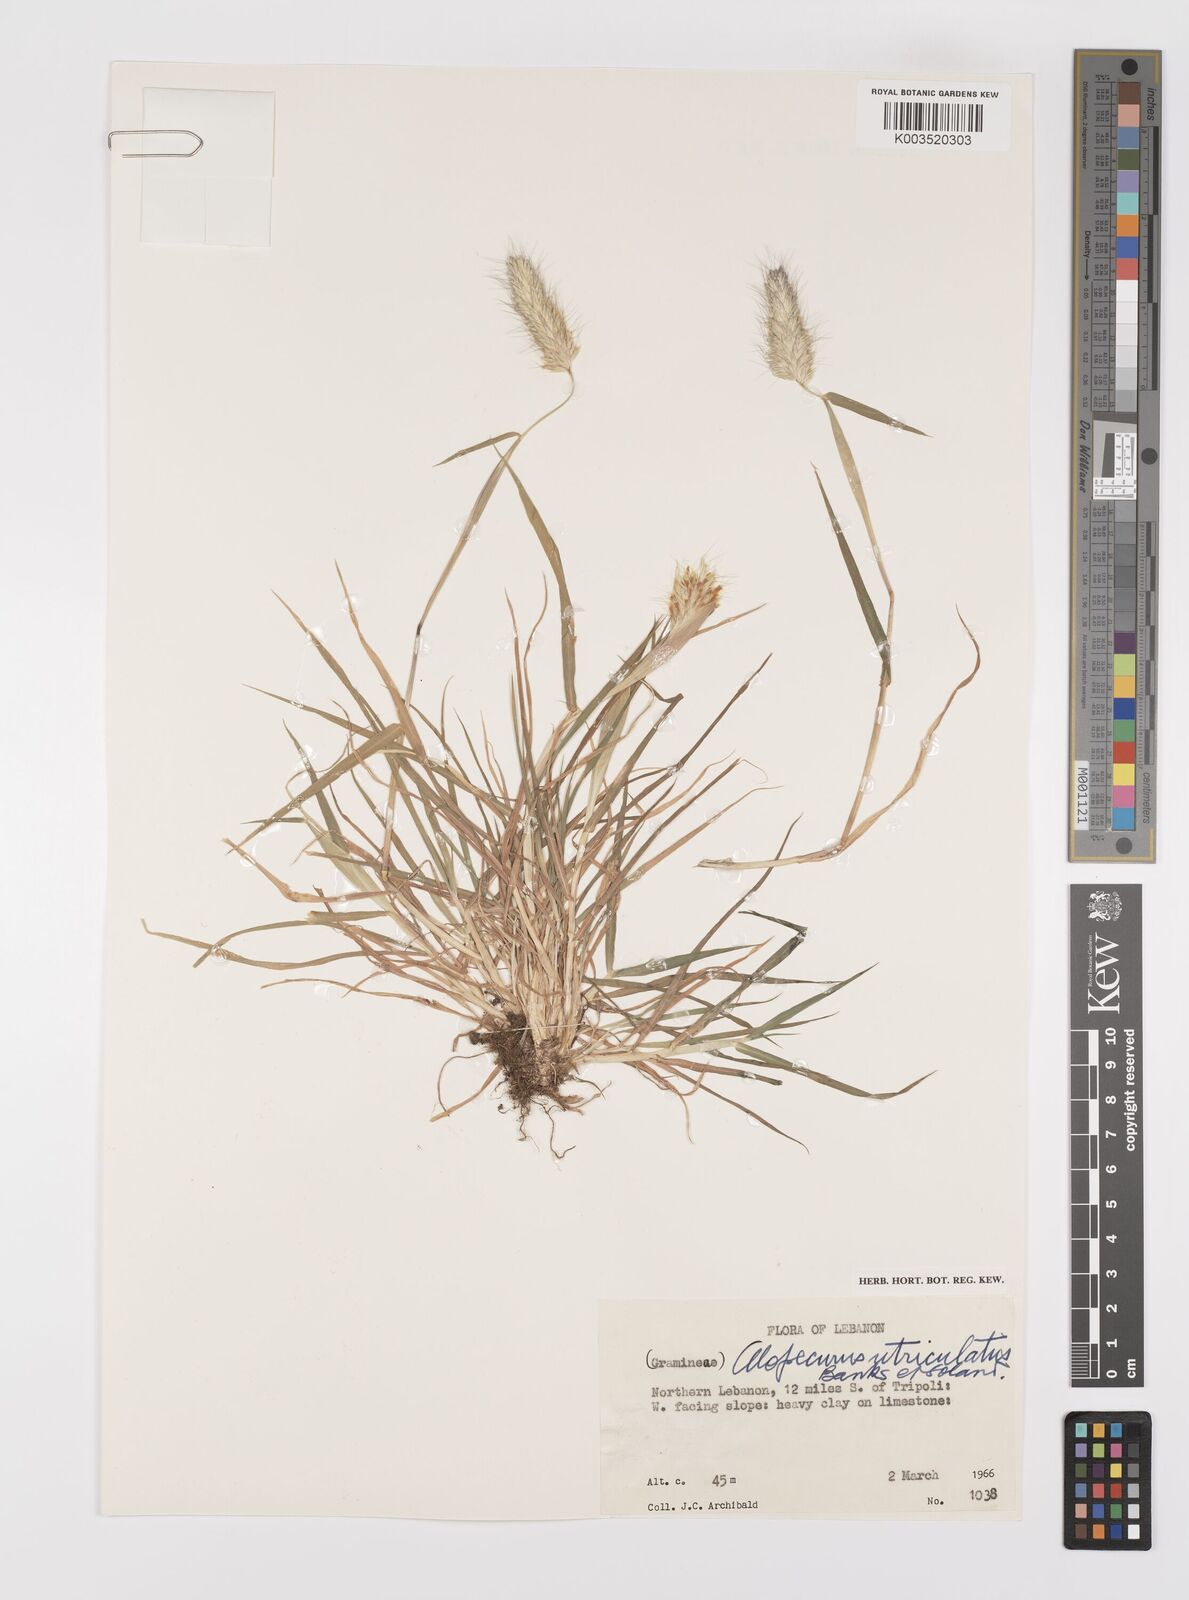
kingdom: Plantae
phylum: Tracheophyta
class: Liliopsida
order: Poales
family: Poaceae
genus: Alopecurus
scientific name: Alopecurus utriculatus
